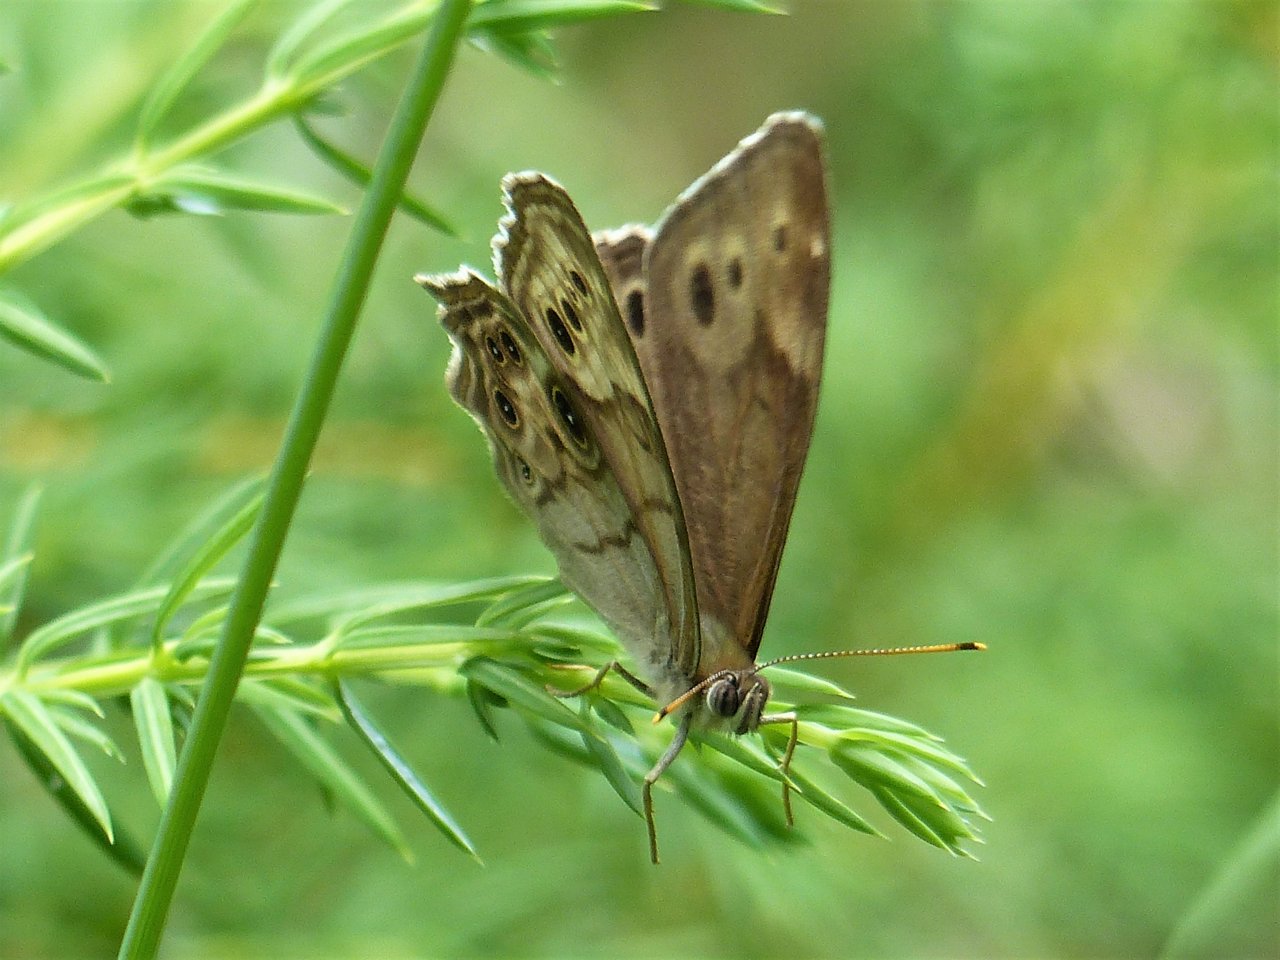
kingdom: Animalia
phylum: Arthropoda
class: Insecta
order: Lepidoptera
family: Nymphalidae
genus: Lethe
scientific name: Lethe anthedon
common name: Northern Pearly-Eye
